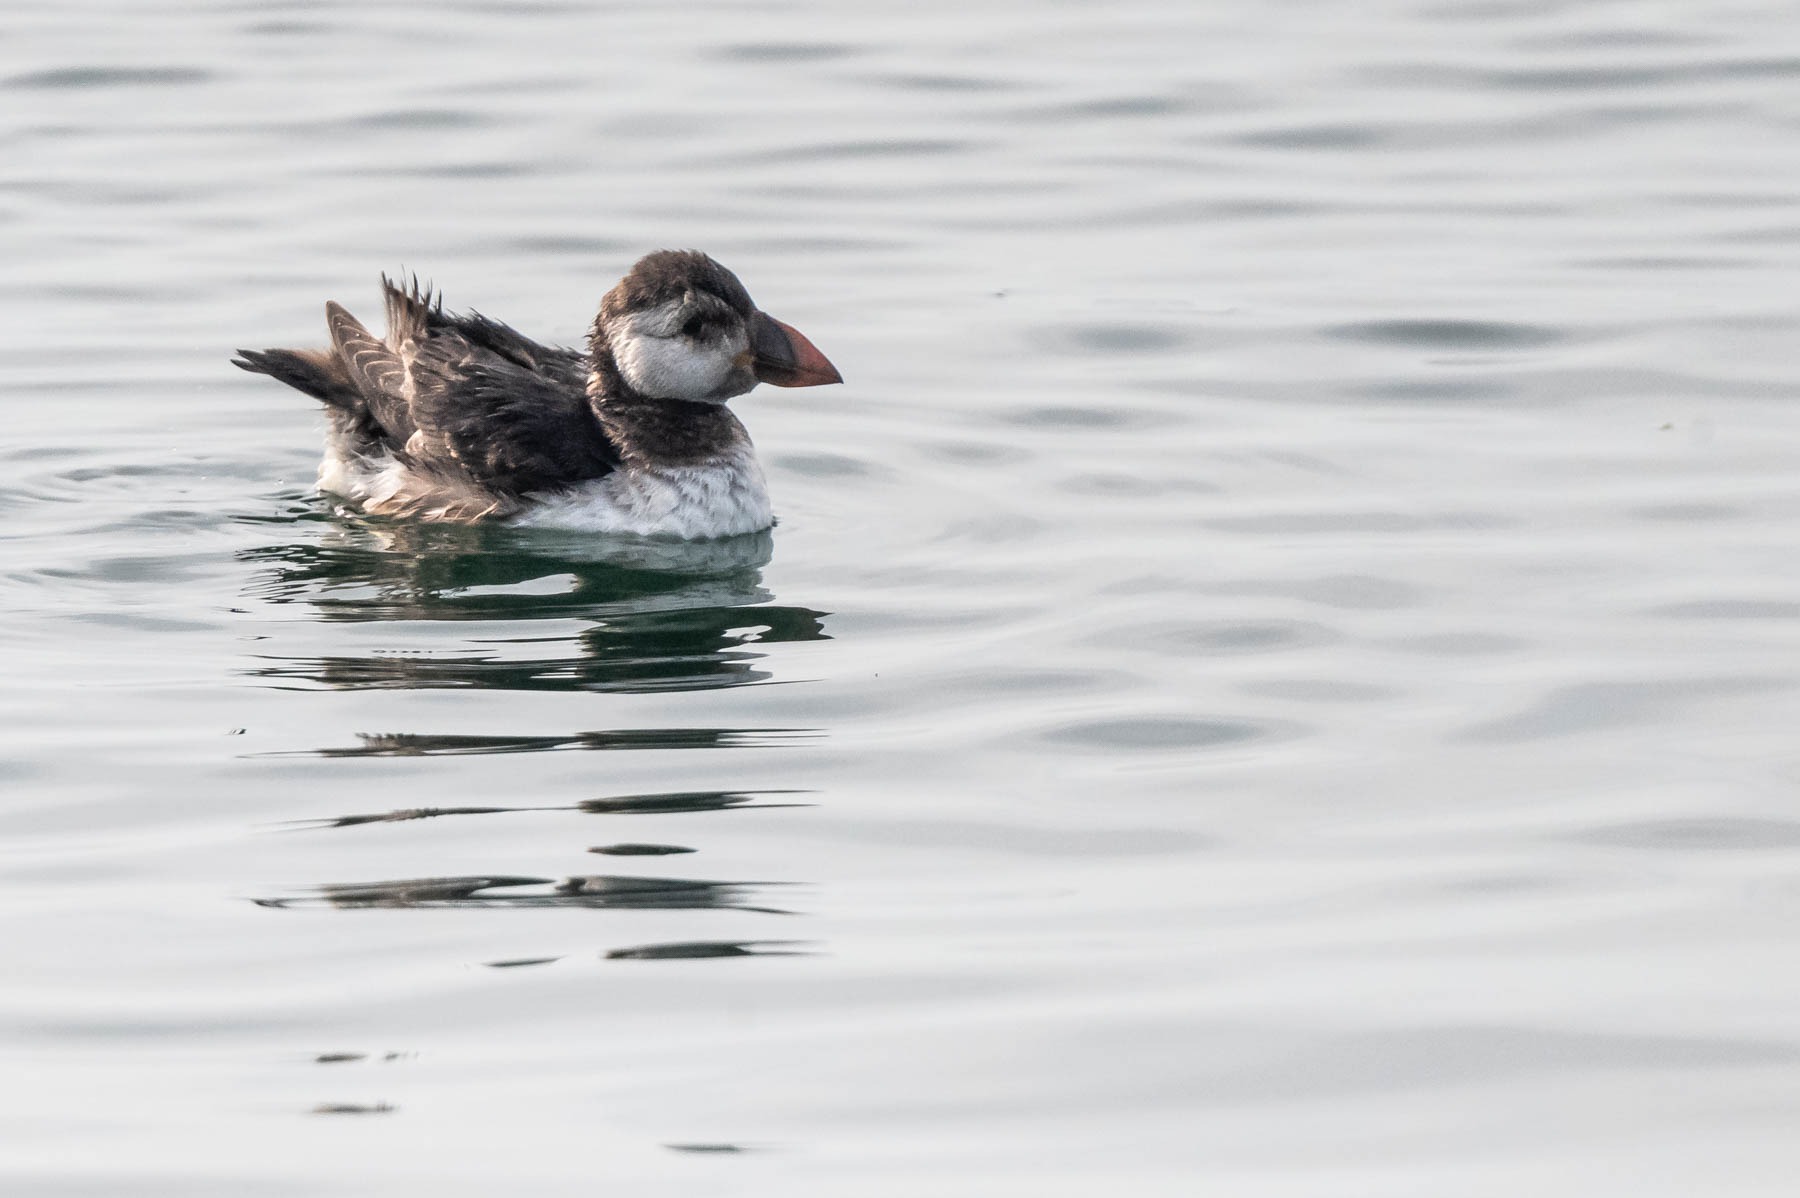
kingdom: Animalia
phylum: Chordata
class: Aves
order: Charadriiformes
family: Alcidae
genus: Fratercula
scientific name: Fratercula arctica
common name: Lunde
